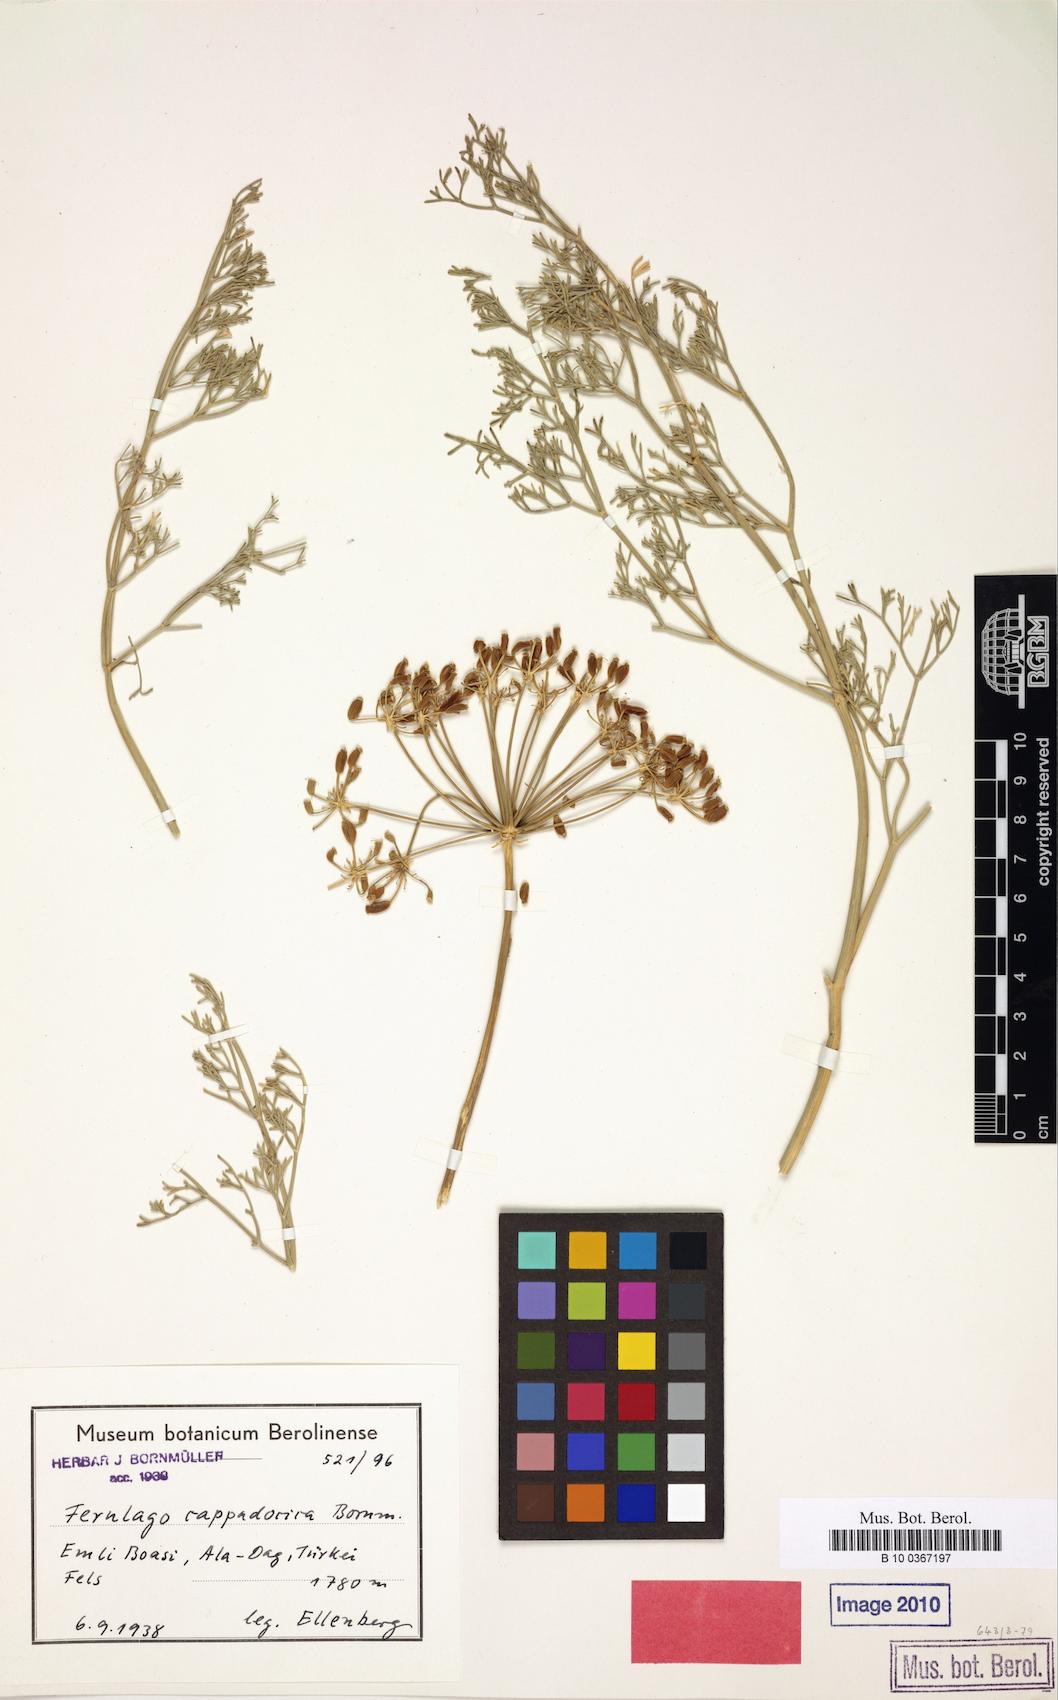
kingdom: Plantae
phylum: Tracheophyta
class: Magnoliopsida
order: Apiales
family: Apiaceae
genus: Ferulago
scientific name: Ferulago pachyloba
